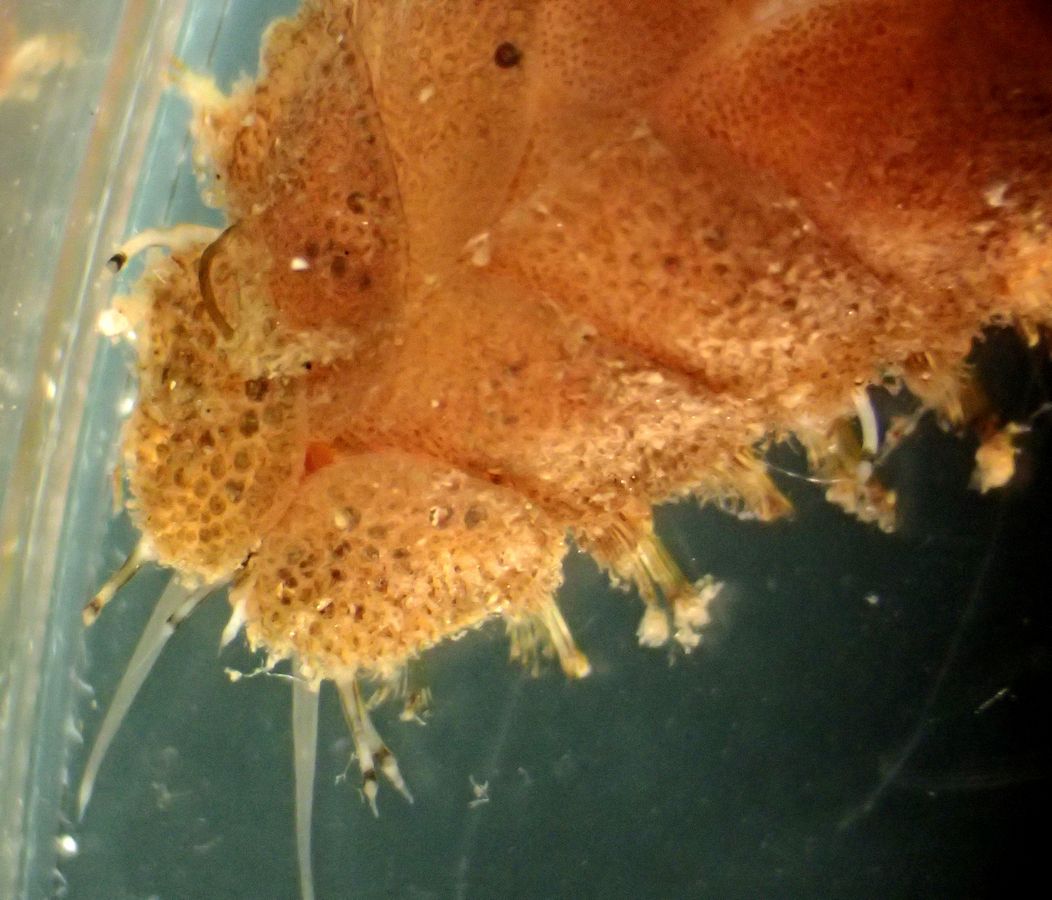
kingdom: Animalia
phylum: Annelida
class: Polychaeta
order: Phyllodocida
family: Polynoidae
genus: Lepidonotus
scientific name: Lepidonotus squamatus
